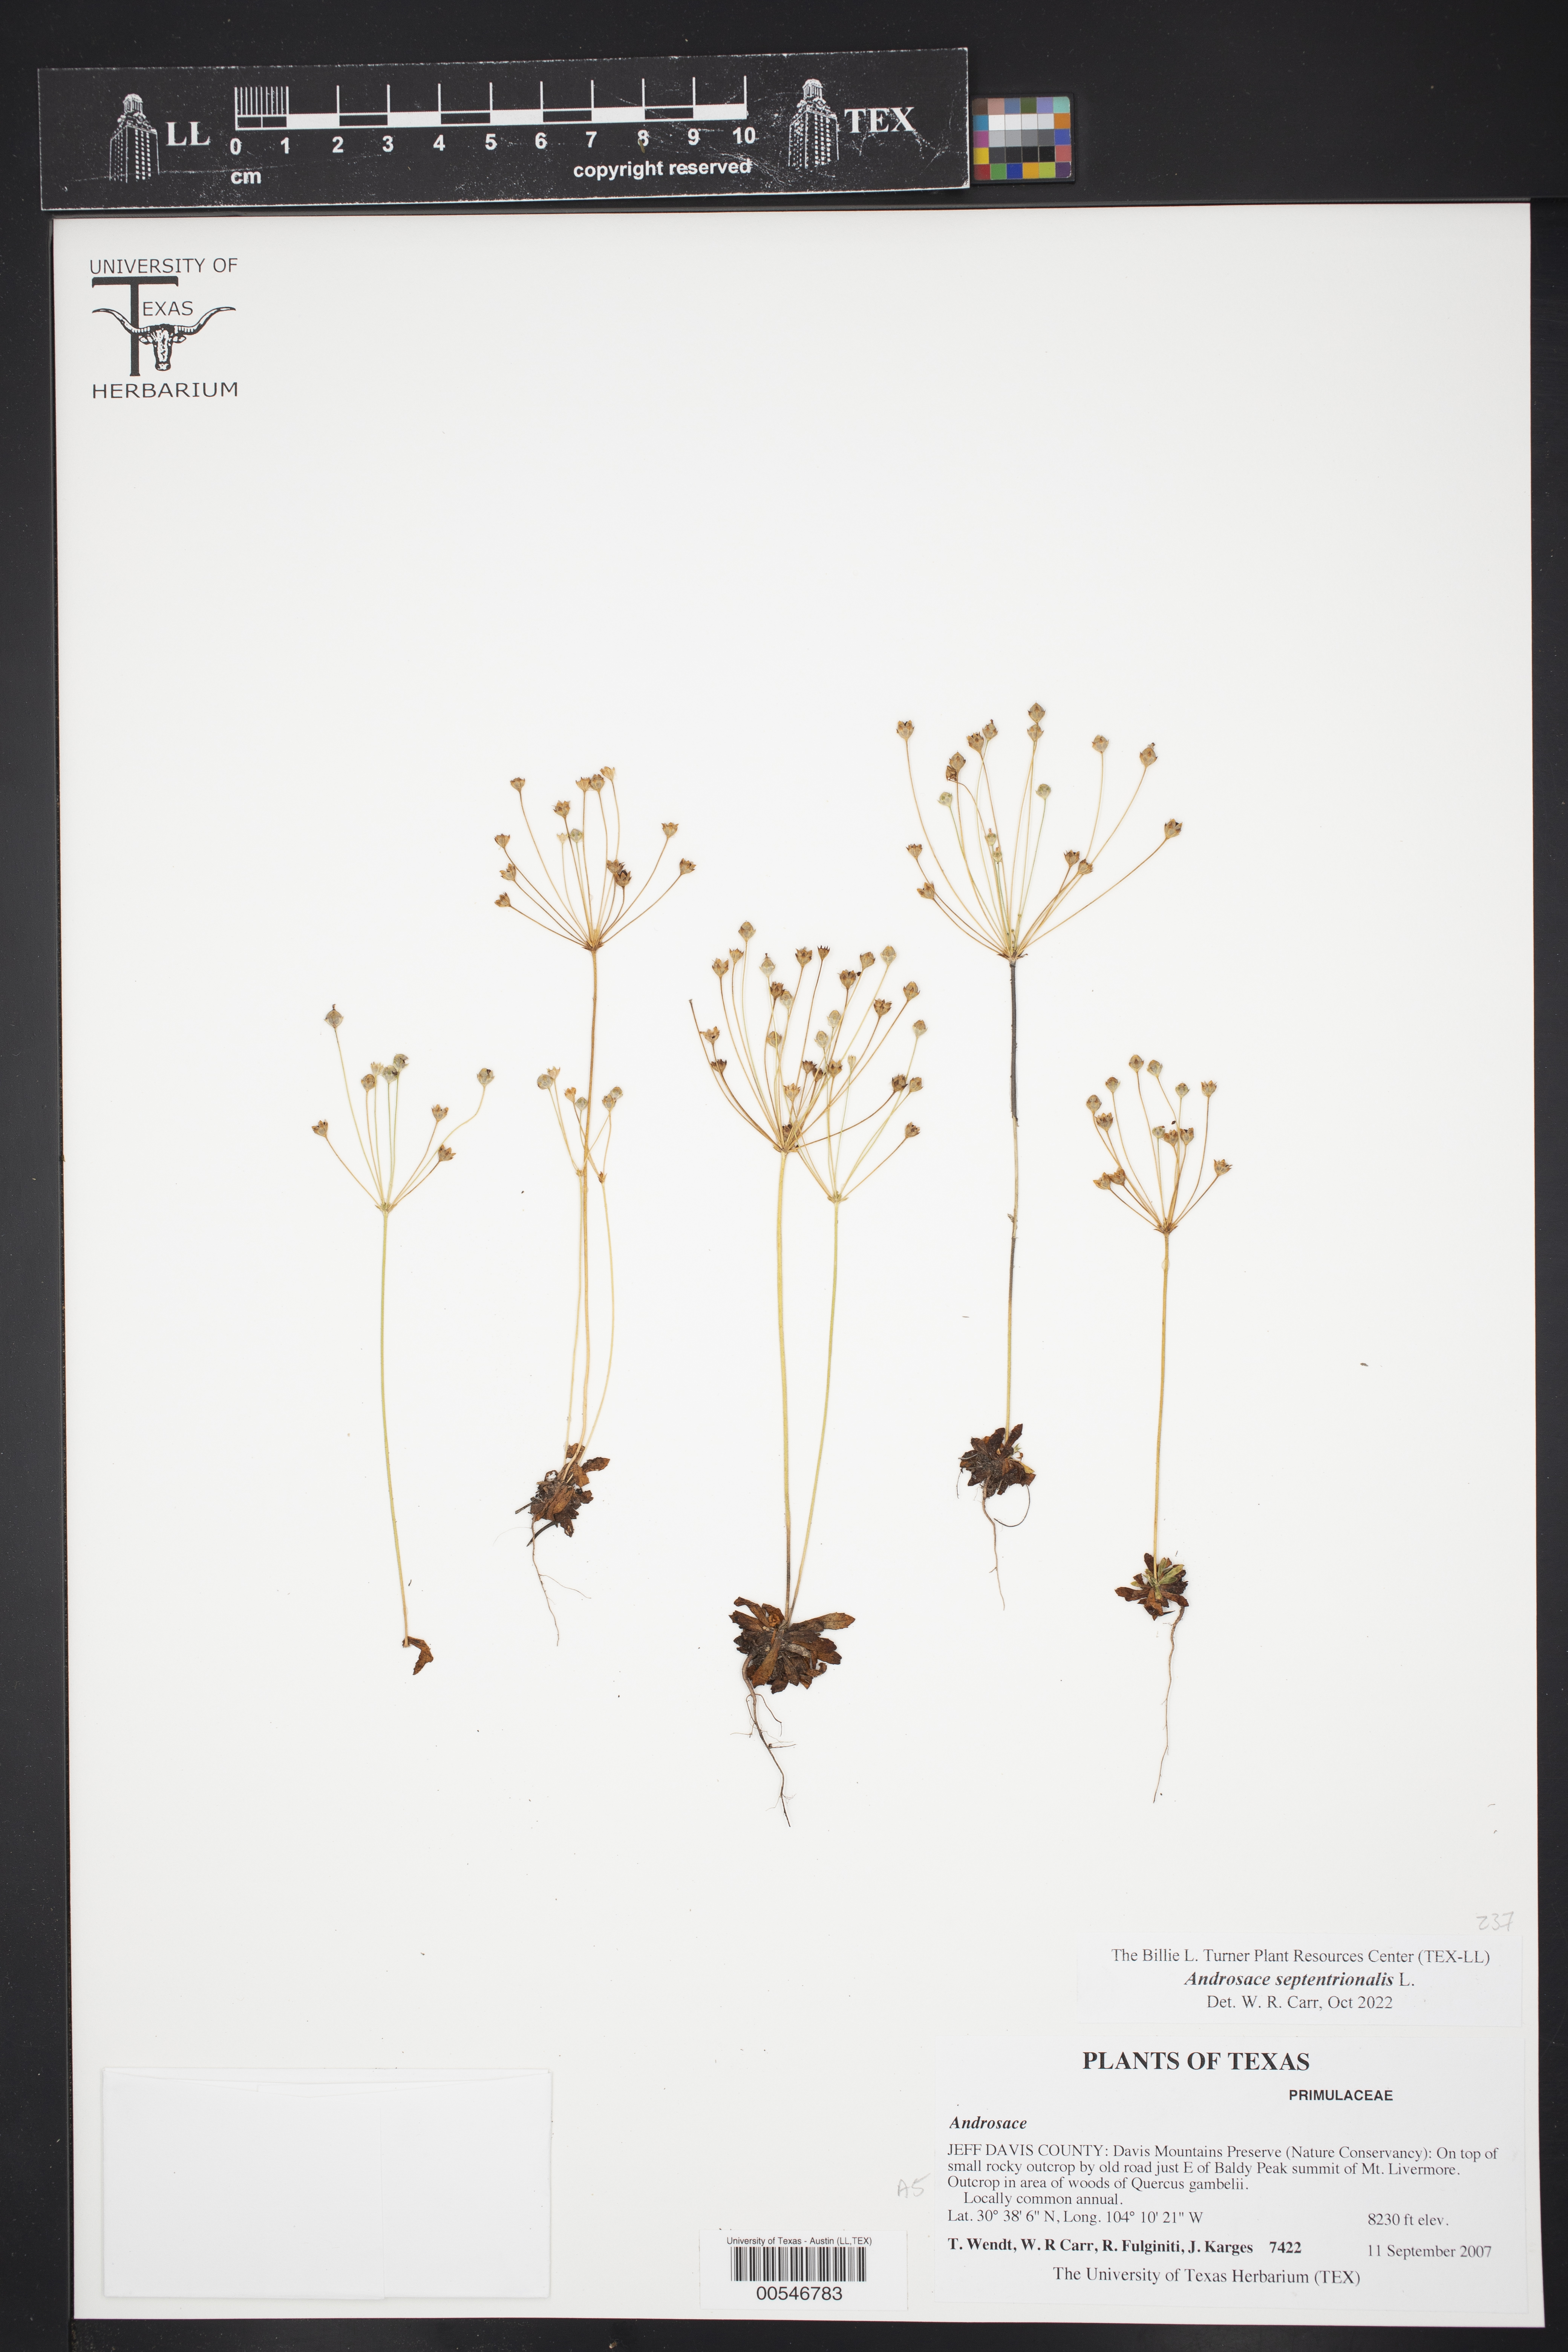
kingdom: Plantae
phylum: Tracheophyta
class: Magnoliopsida
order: Ericales
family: Primulaceae
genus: Androsace
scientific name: Androsace septentrionalis
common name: Hairy northern fairy-candelabra
